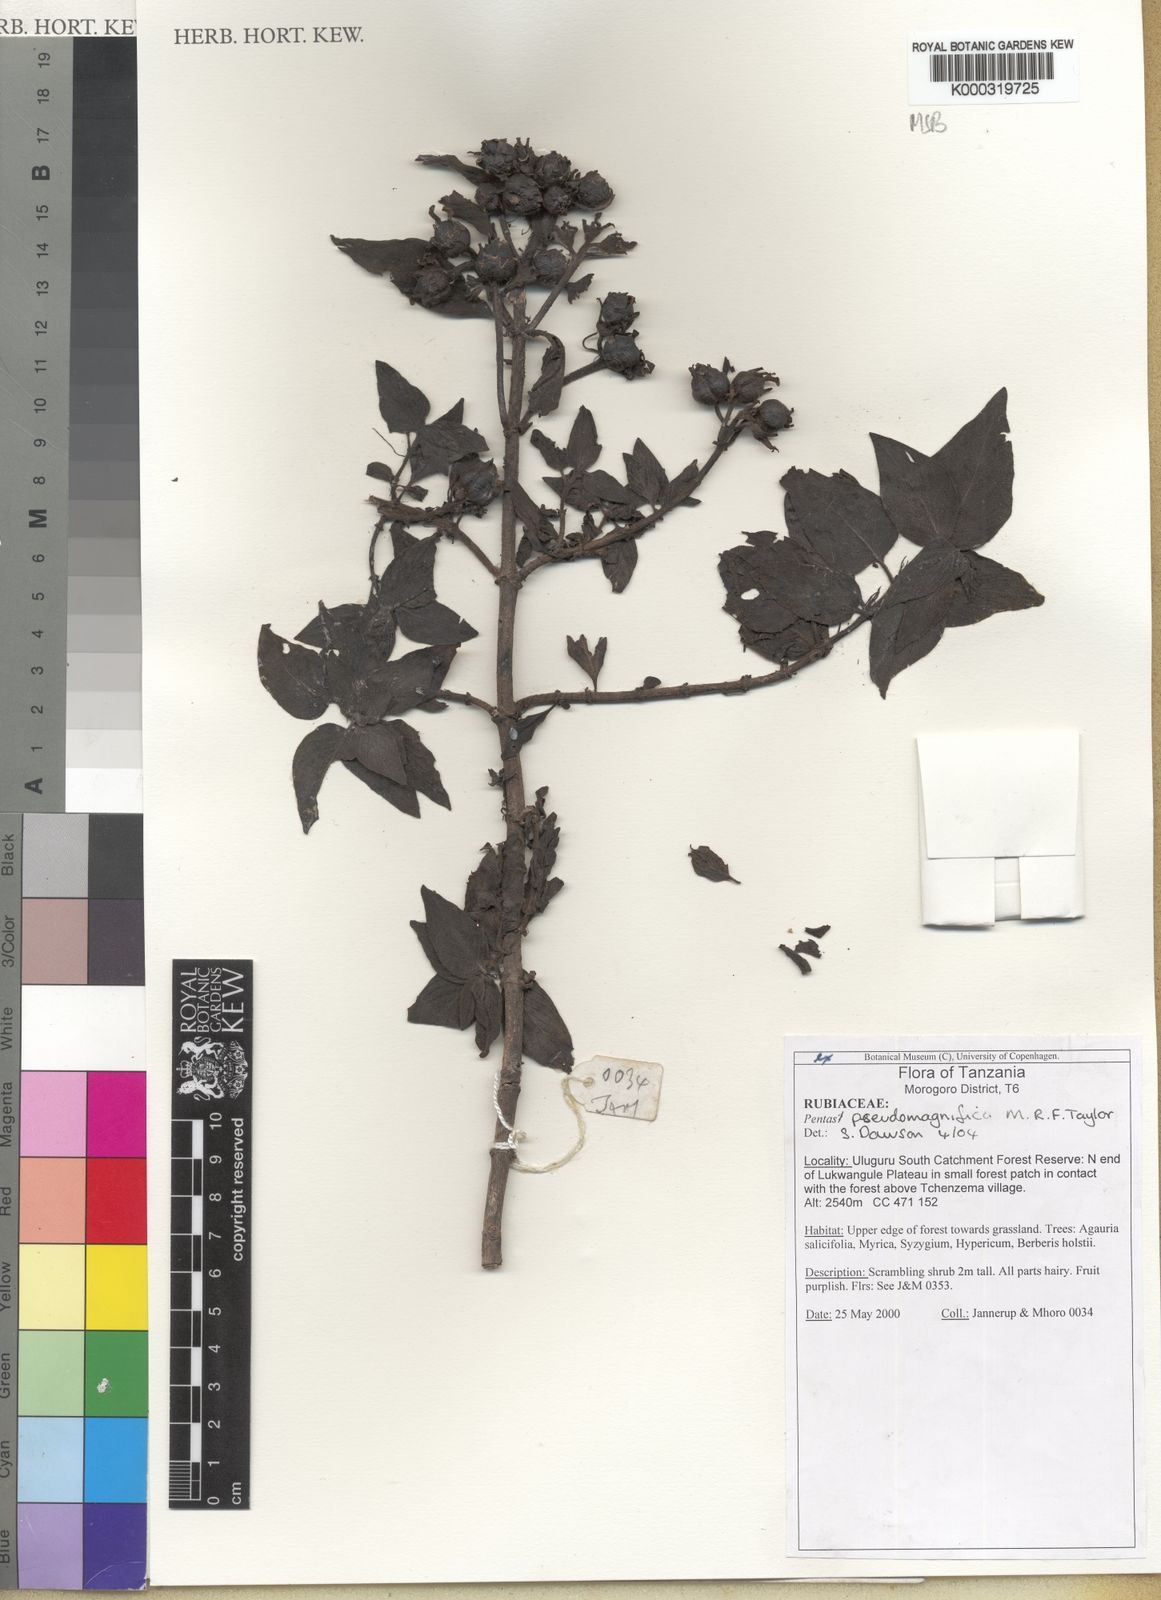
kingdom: Plantae
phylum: Tracheophyta
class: Magnoliopsida
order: Gentianales
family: Rubiaceae
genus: Chamaepentas
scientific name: Chamaepentas pseudomagnifica
